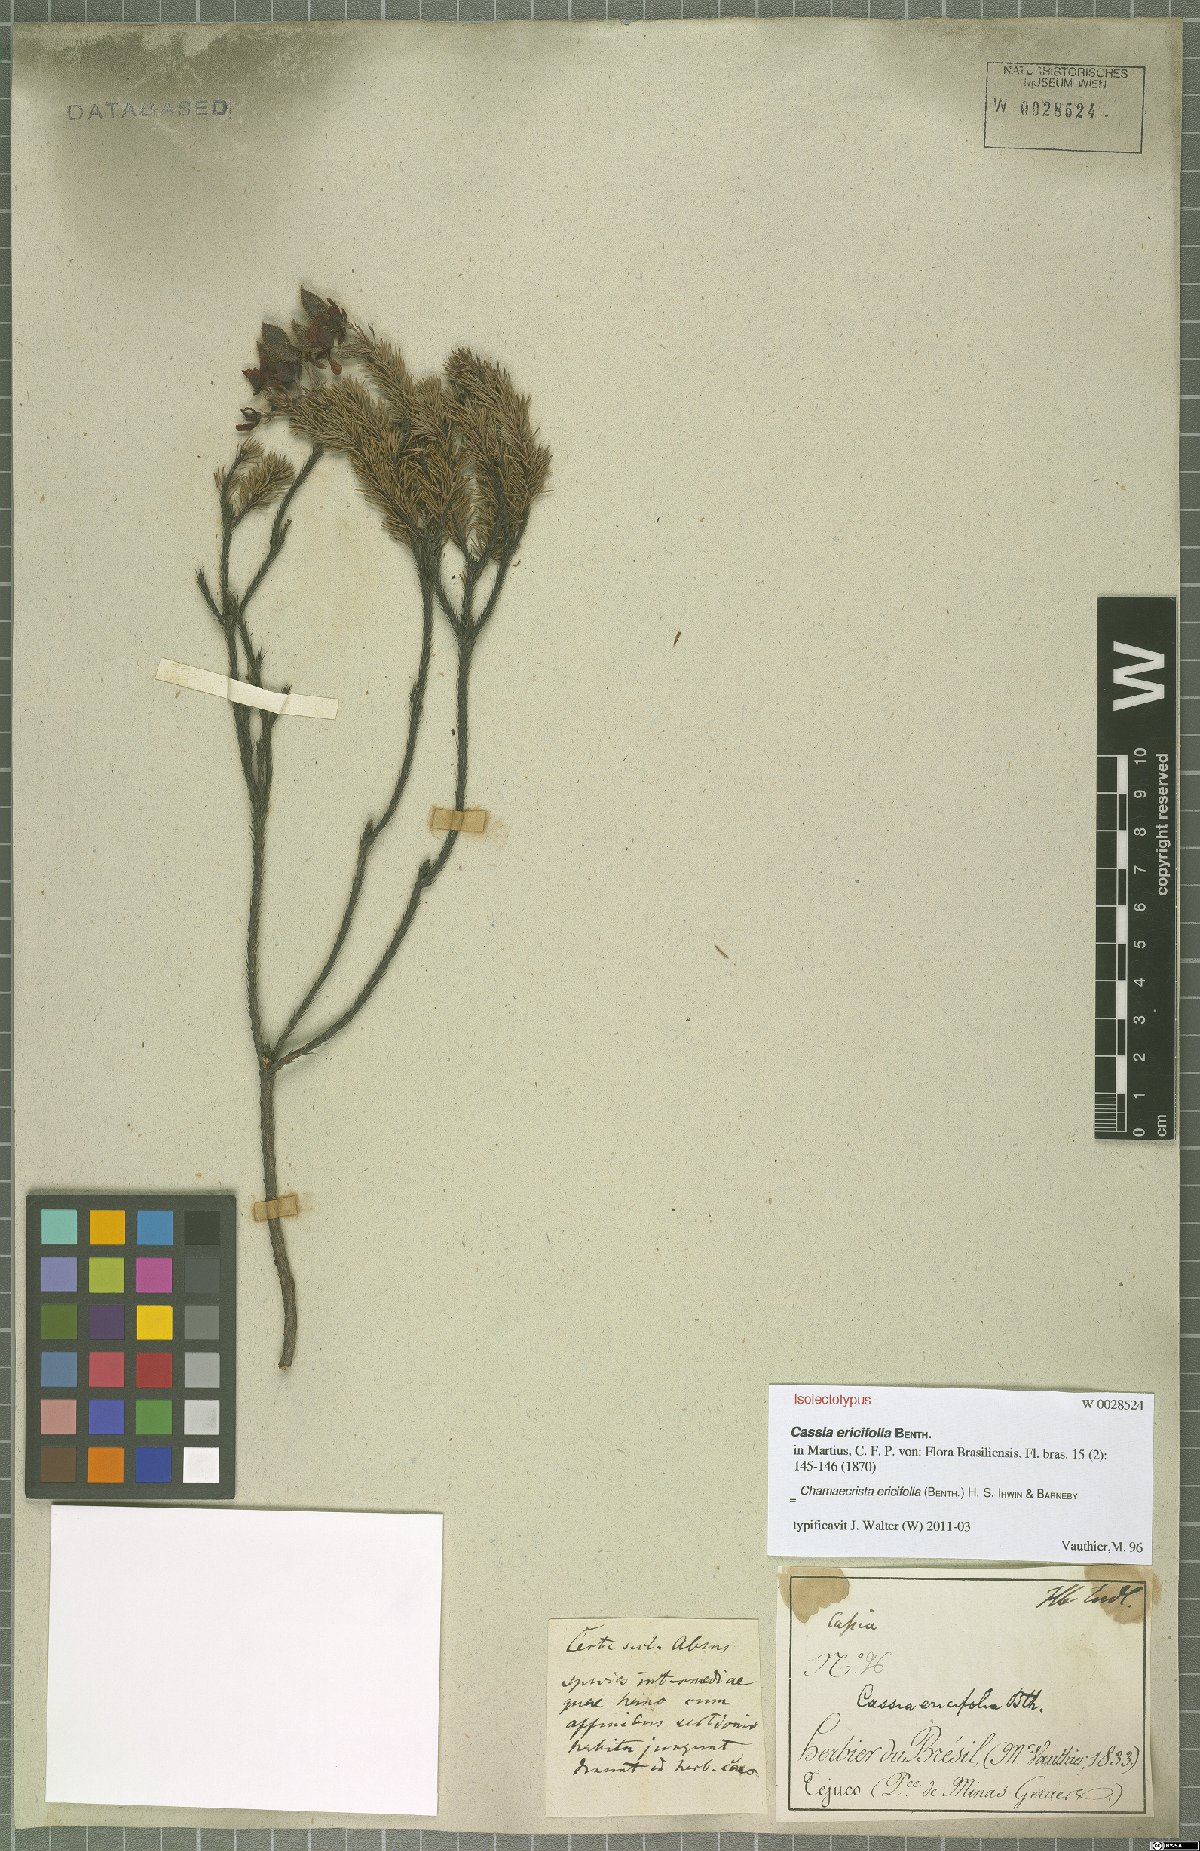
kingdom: Plantae
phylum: Tracheophyta
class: Magnoliopsida
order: Fabales
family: Fabaceae
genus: Chamaecrista
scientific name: Chamaecrista ericifolia
